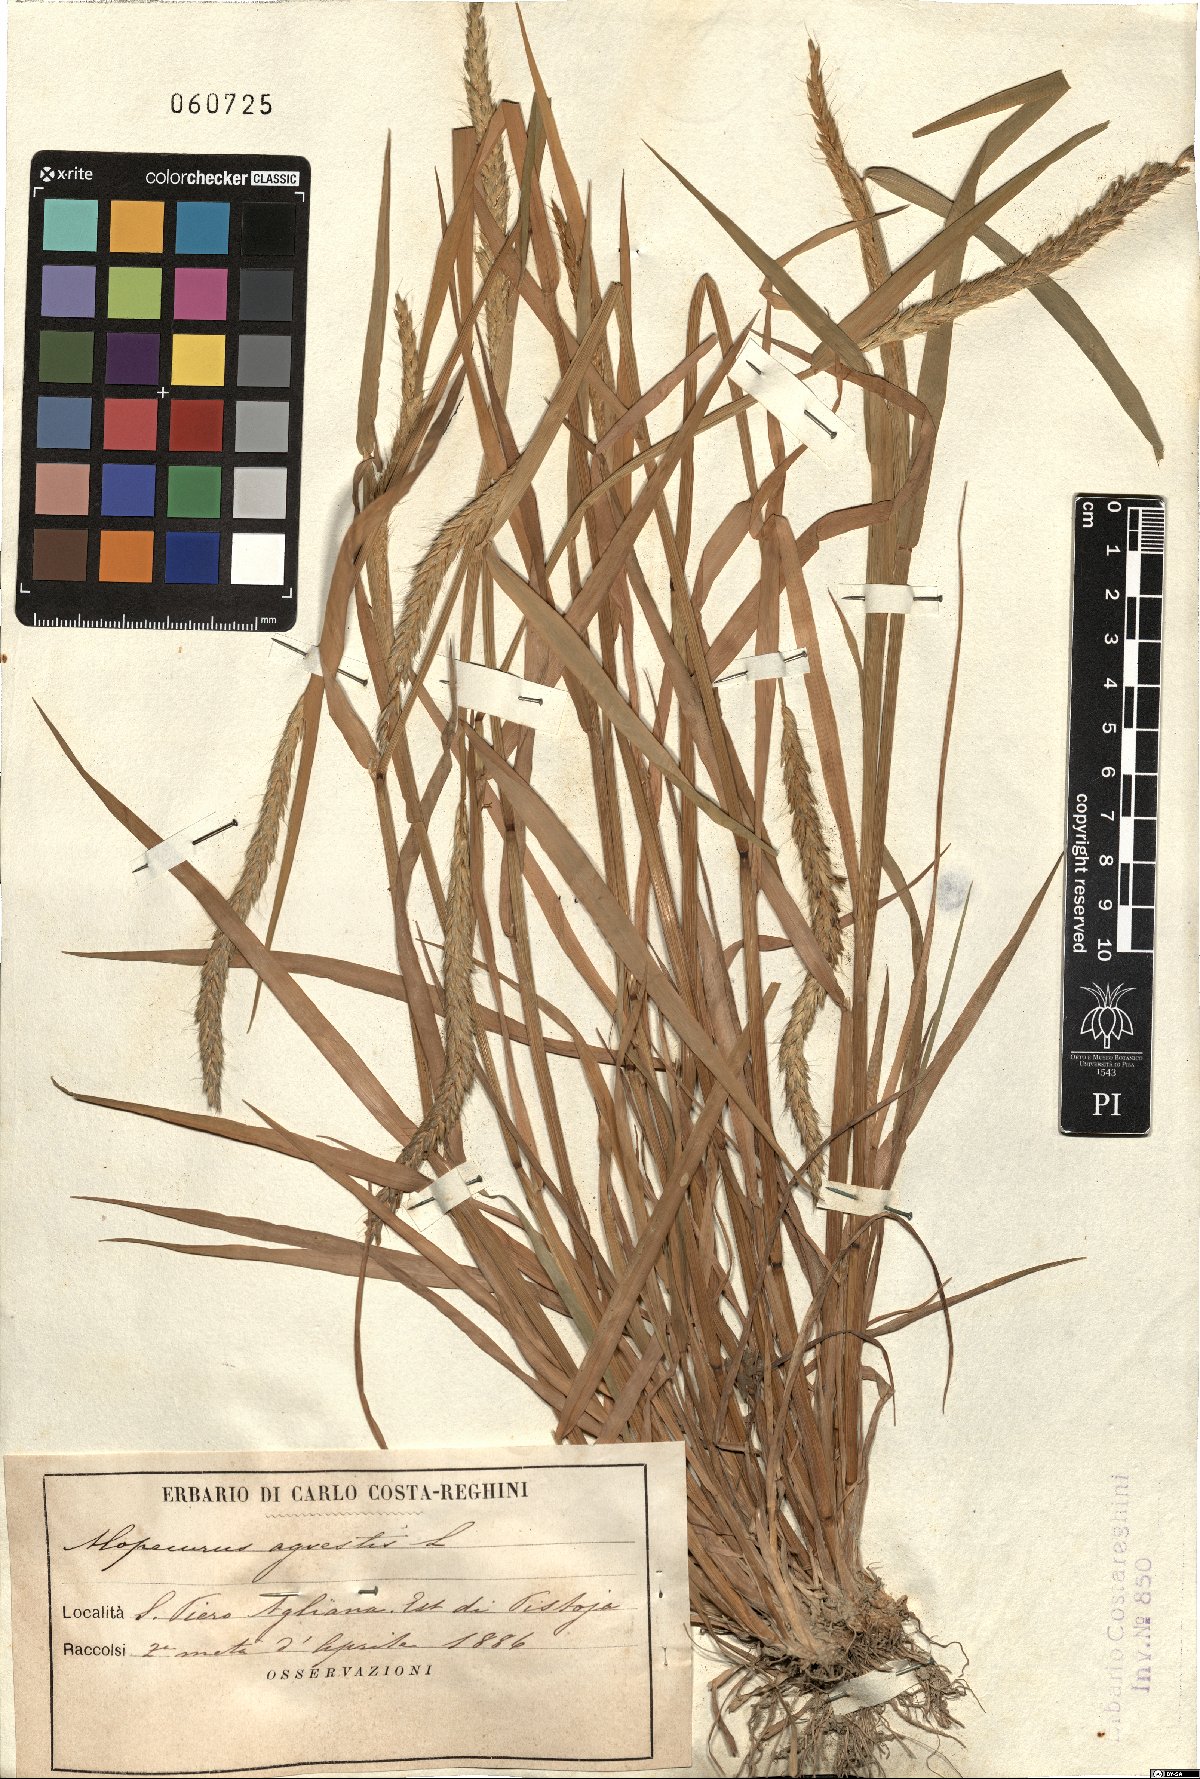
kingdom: Plantae
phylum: Tracheophyta
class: Liliopsida
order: Poales
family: Poaceae
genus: Alopecurus
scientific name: Alopecurus myosuroides
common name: Black-grass
